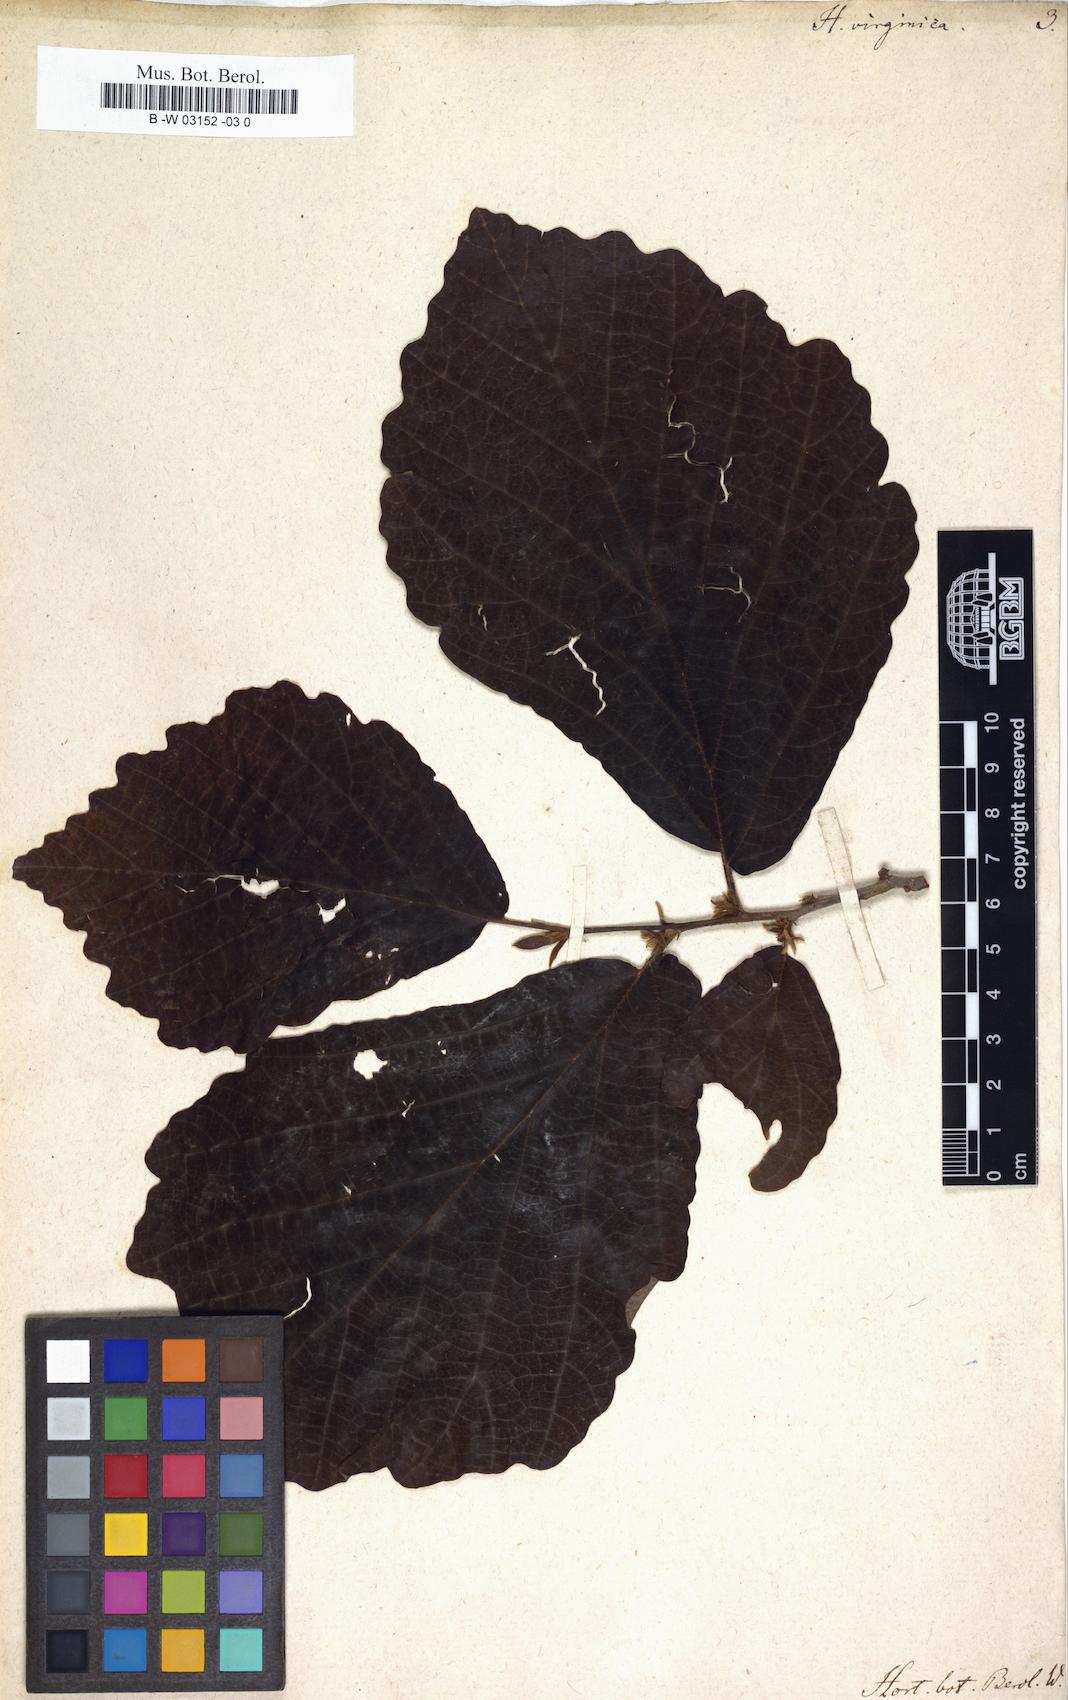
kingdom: Plantae
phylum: Tracheophyta
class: Magnoliopsida
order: Saxifragales
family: Hamamelidaceae
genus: Hamamelis
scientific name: Hamamelis virginiana
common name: Witch-hazel
